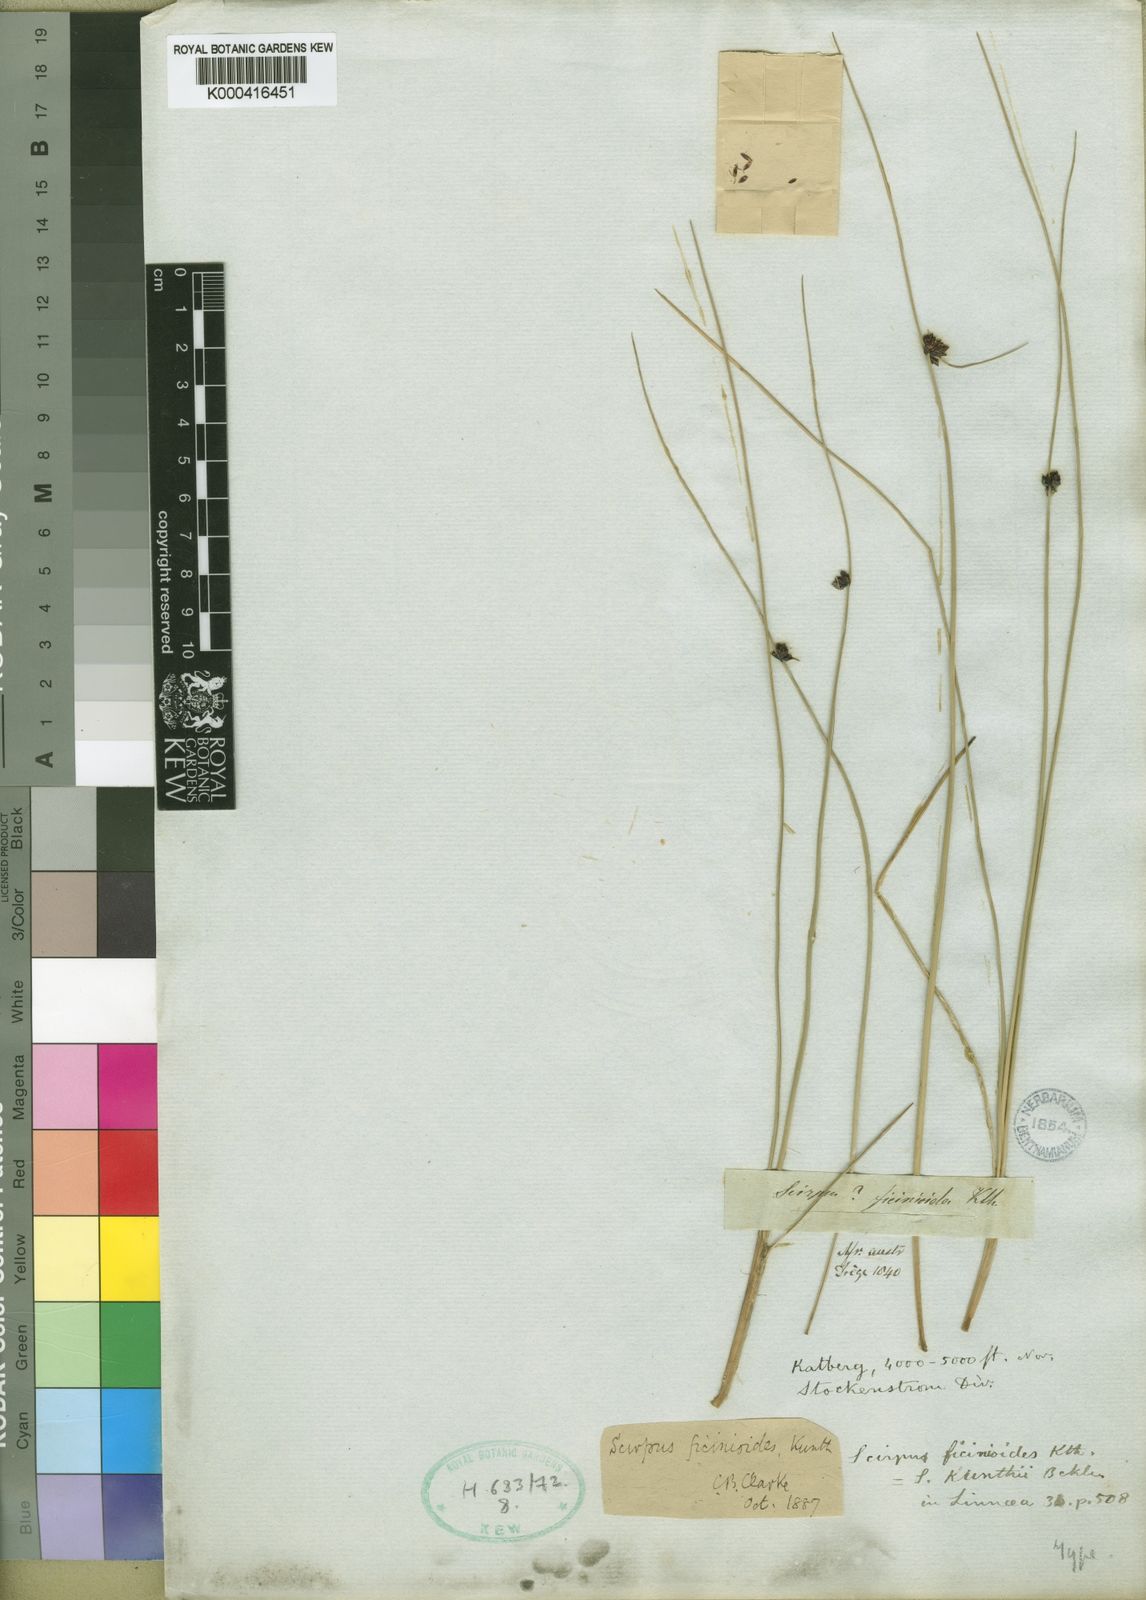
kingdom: Plantae
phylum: Tracheophyta
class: Liliopsida
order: Poales
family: Cyperaceae
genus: Ficinia
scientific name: Ficinia filiformis
